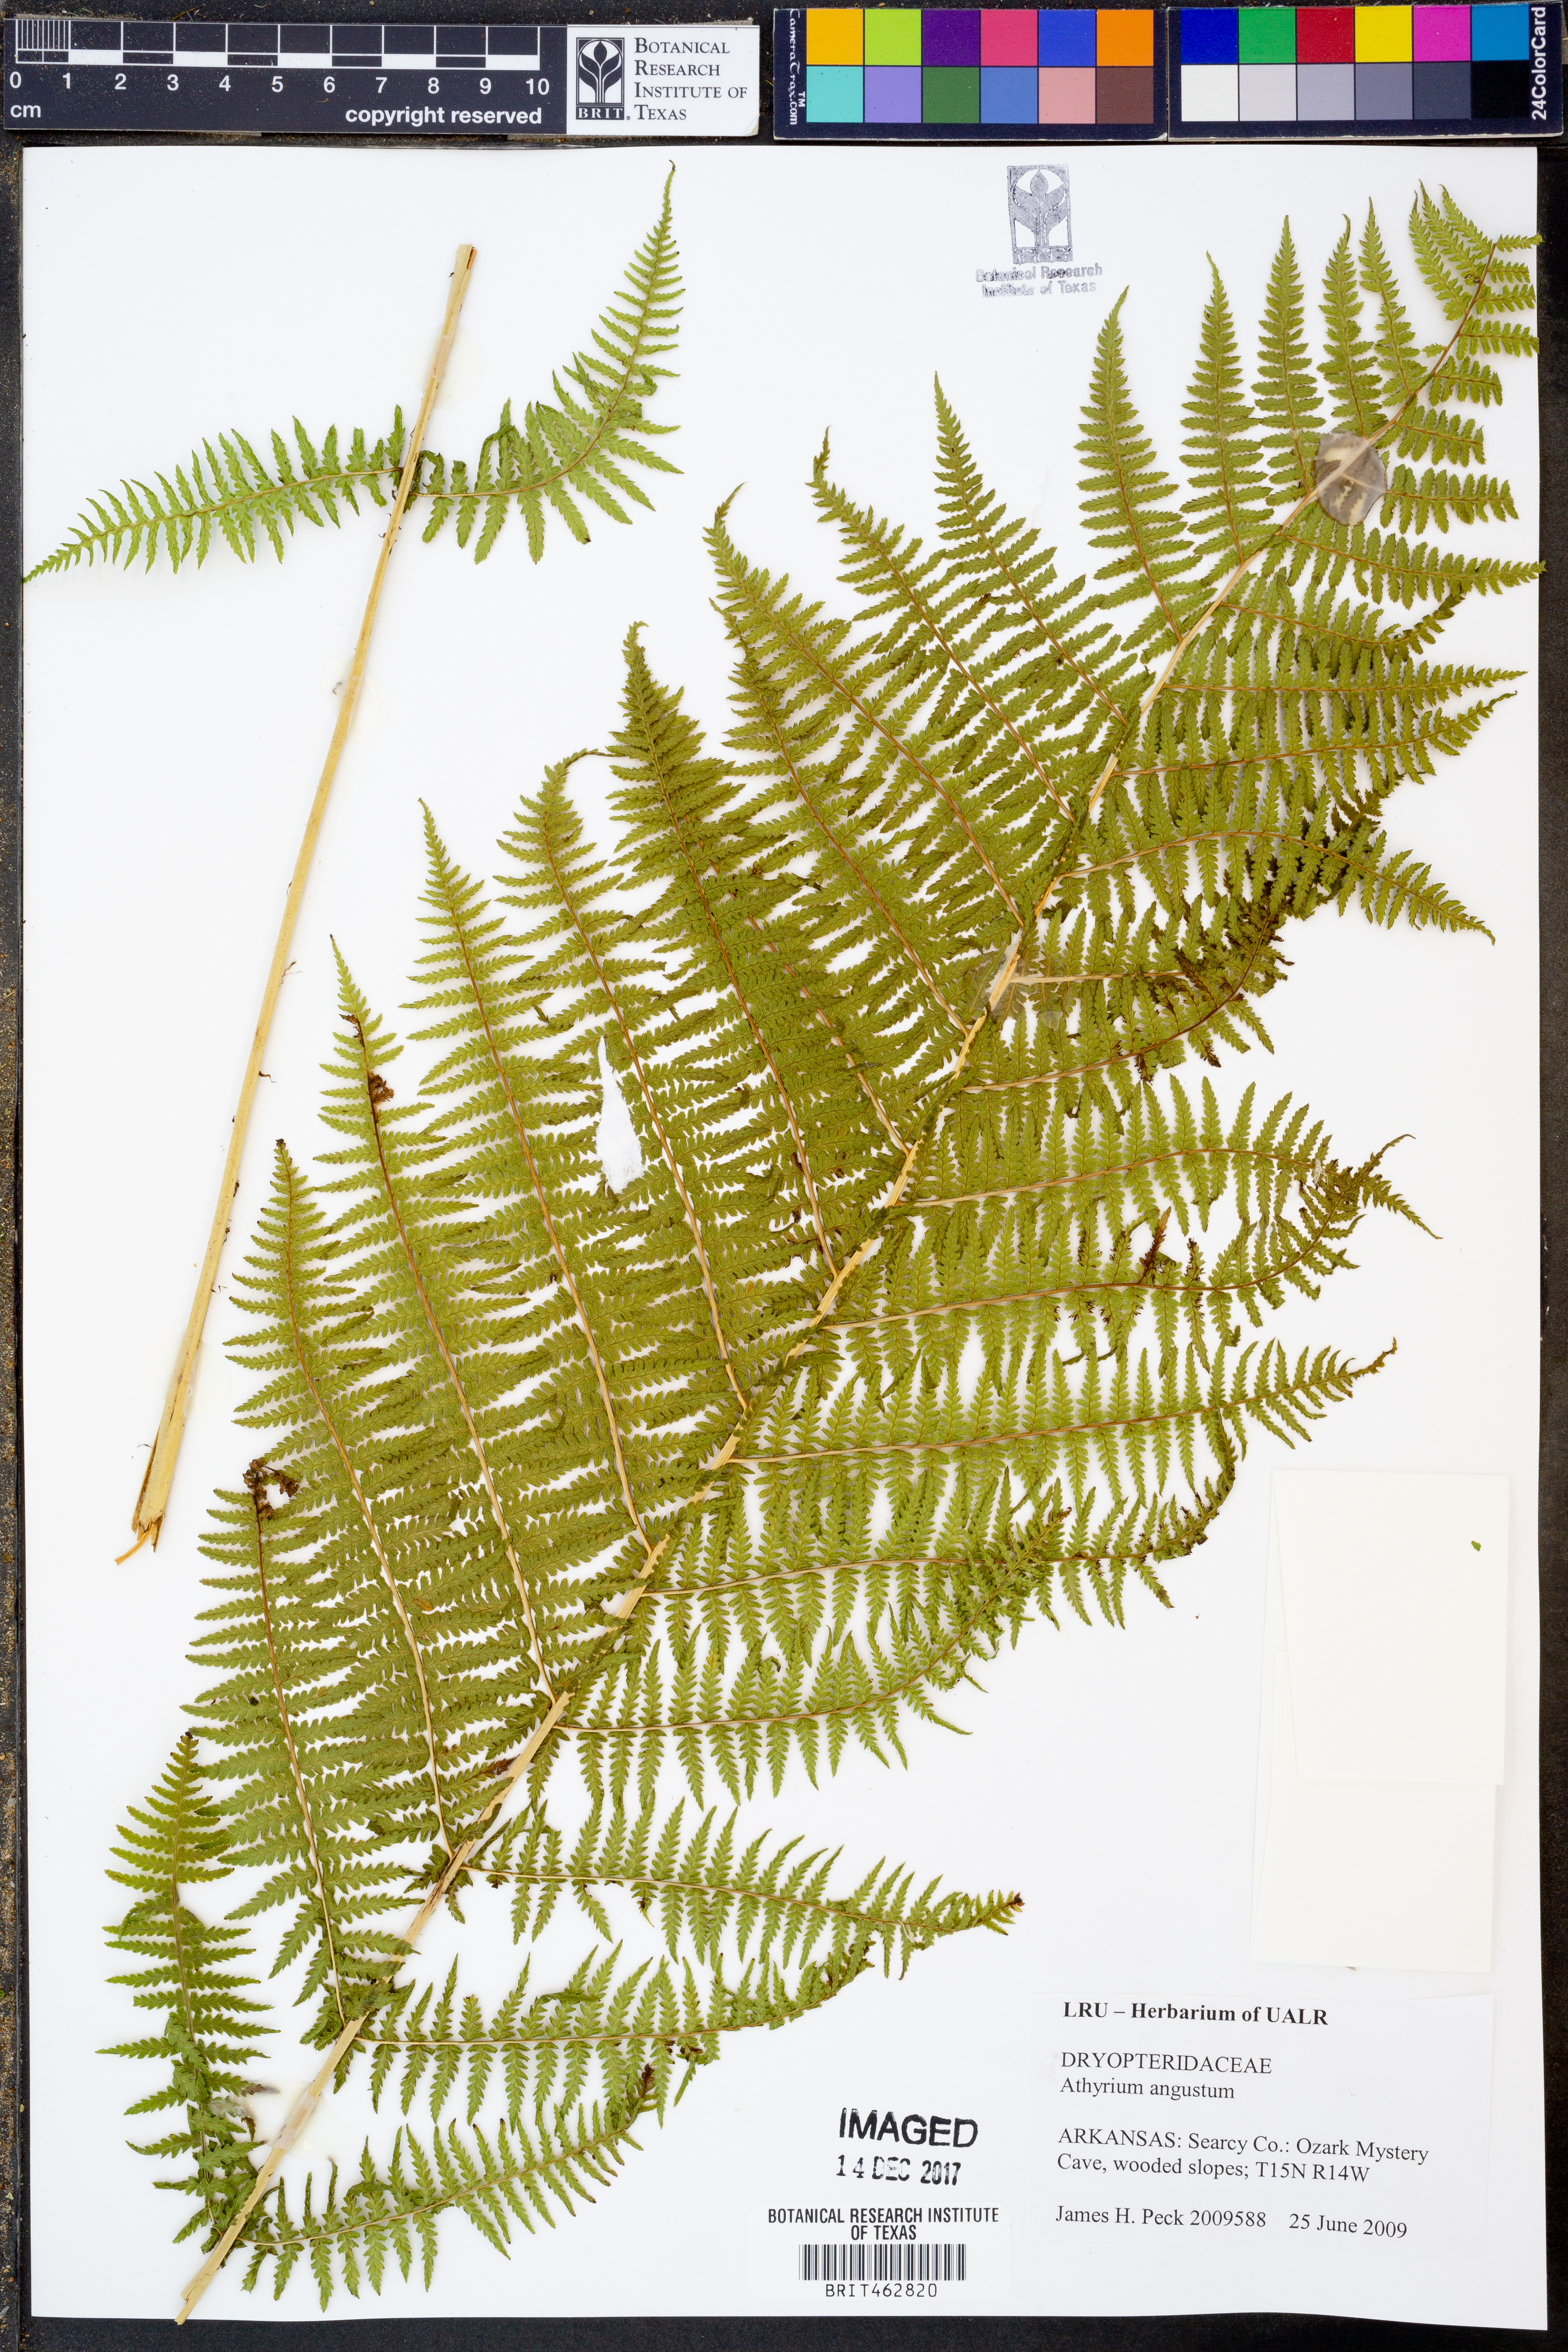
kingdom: Plantae
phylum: Tracheophyta
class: Polypodiopsida
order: Polypodiales
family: Athyriaceae
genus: Athyrium
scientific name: Athyrium angustum
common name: Northern lady fern
